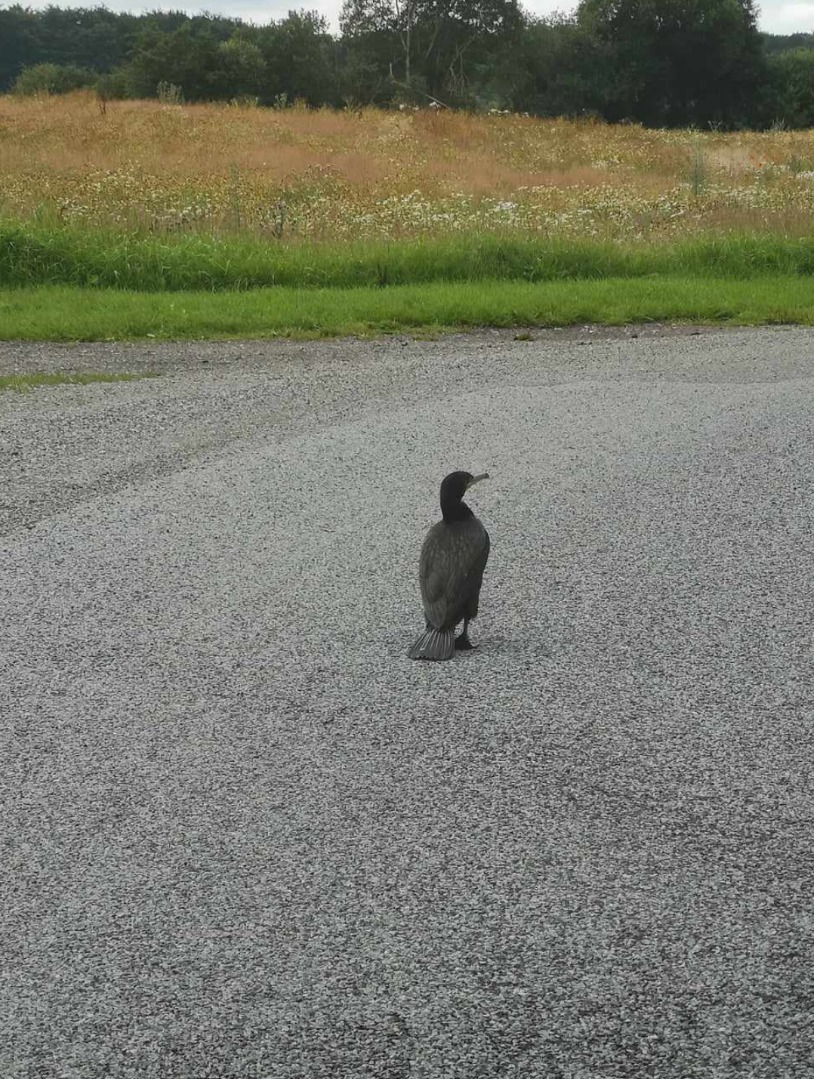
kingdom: Animalia
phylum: Chordata
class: Aves
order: Suliformes
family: Phalacrocoracidae
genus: Phalacrocorax
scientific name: Phalacrocorax carbo
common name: Skarv
